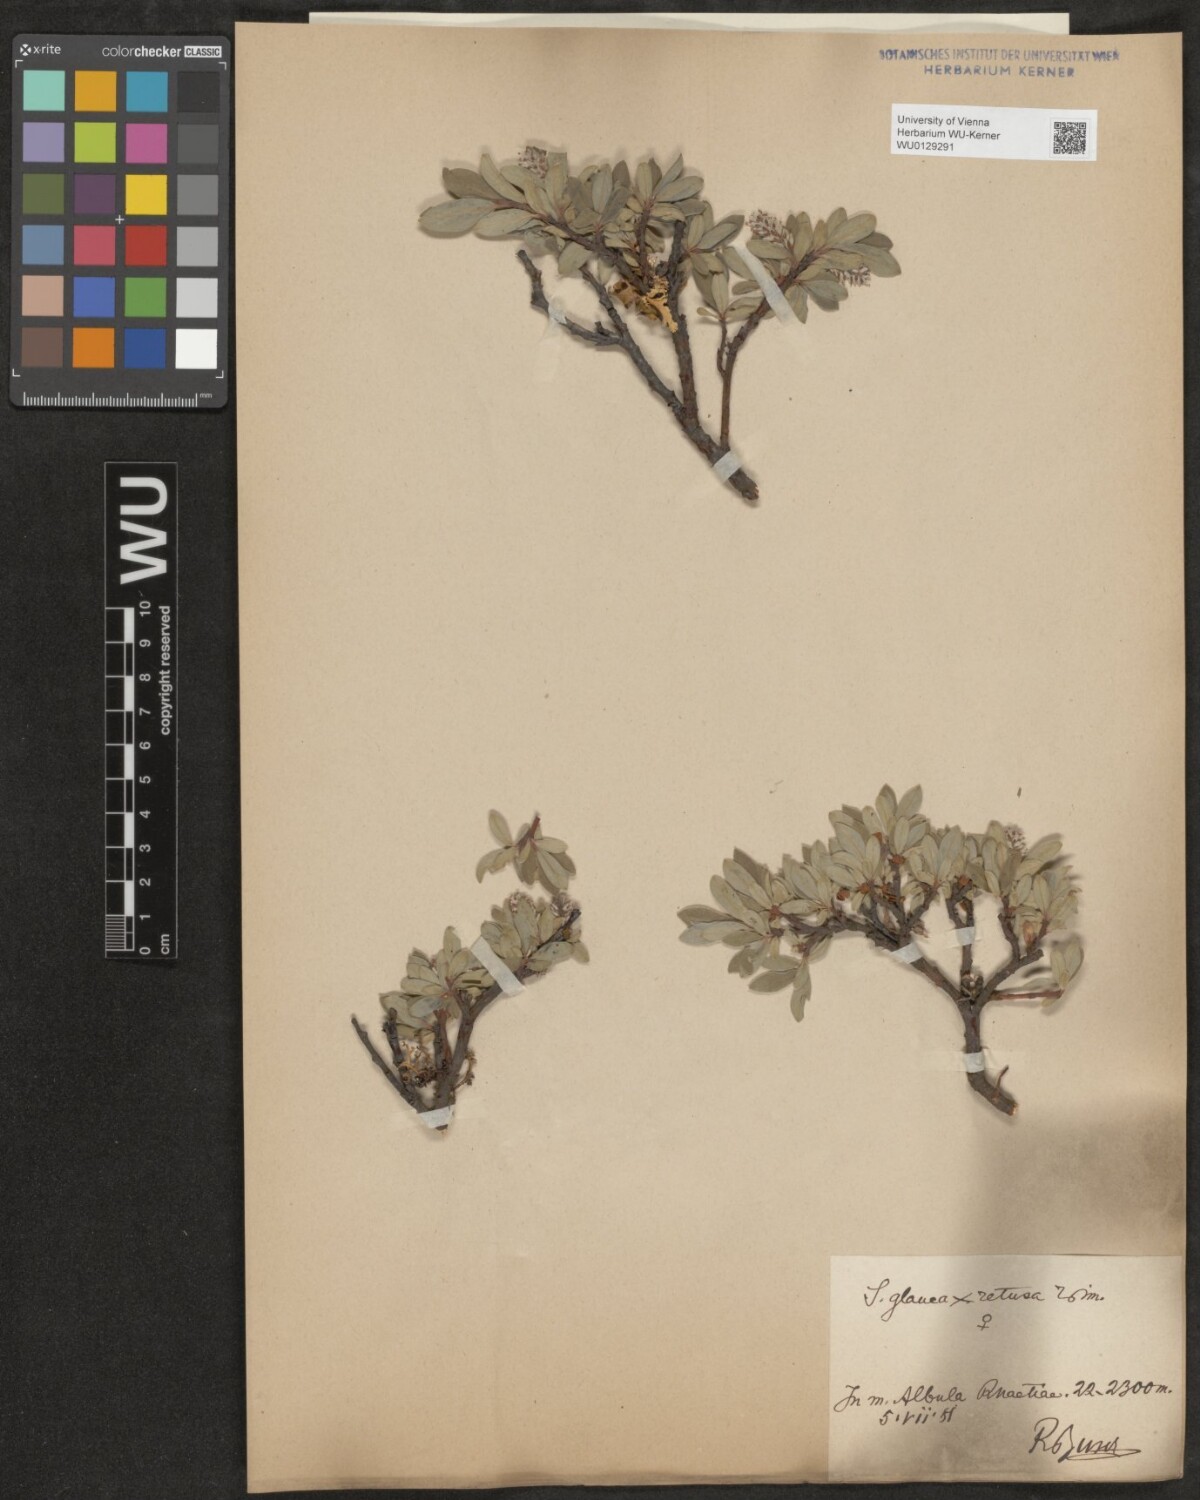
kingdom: Plantae
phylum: Tracheophyta
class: Magnoliopsida
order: Malpighiales
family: Salicaceae
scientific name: Salicaceae
